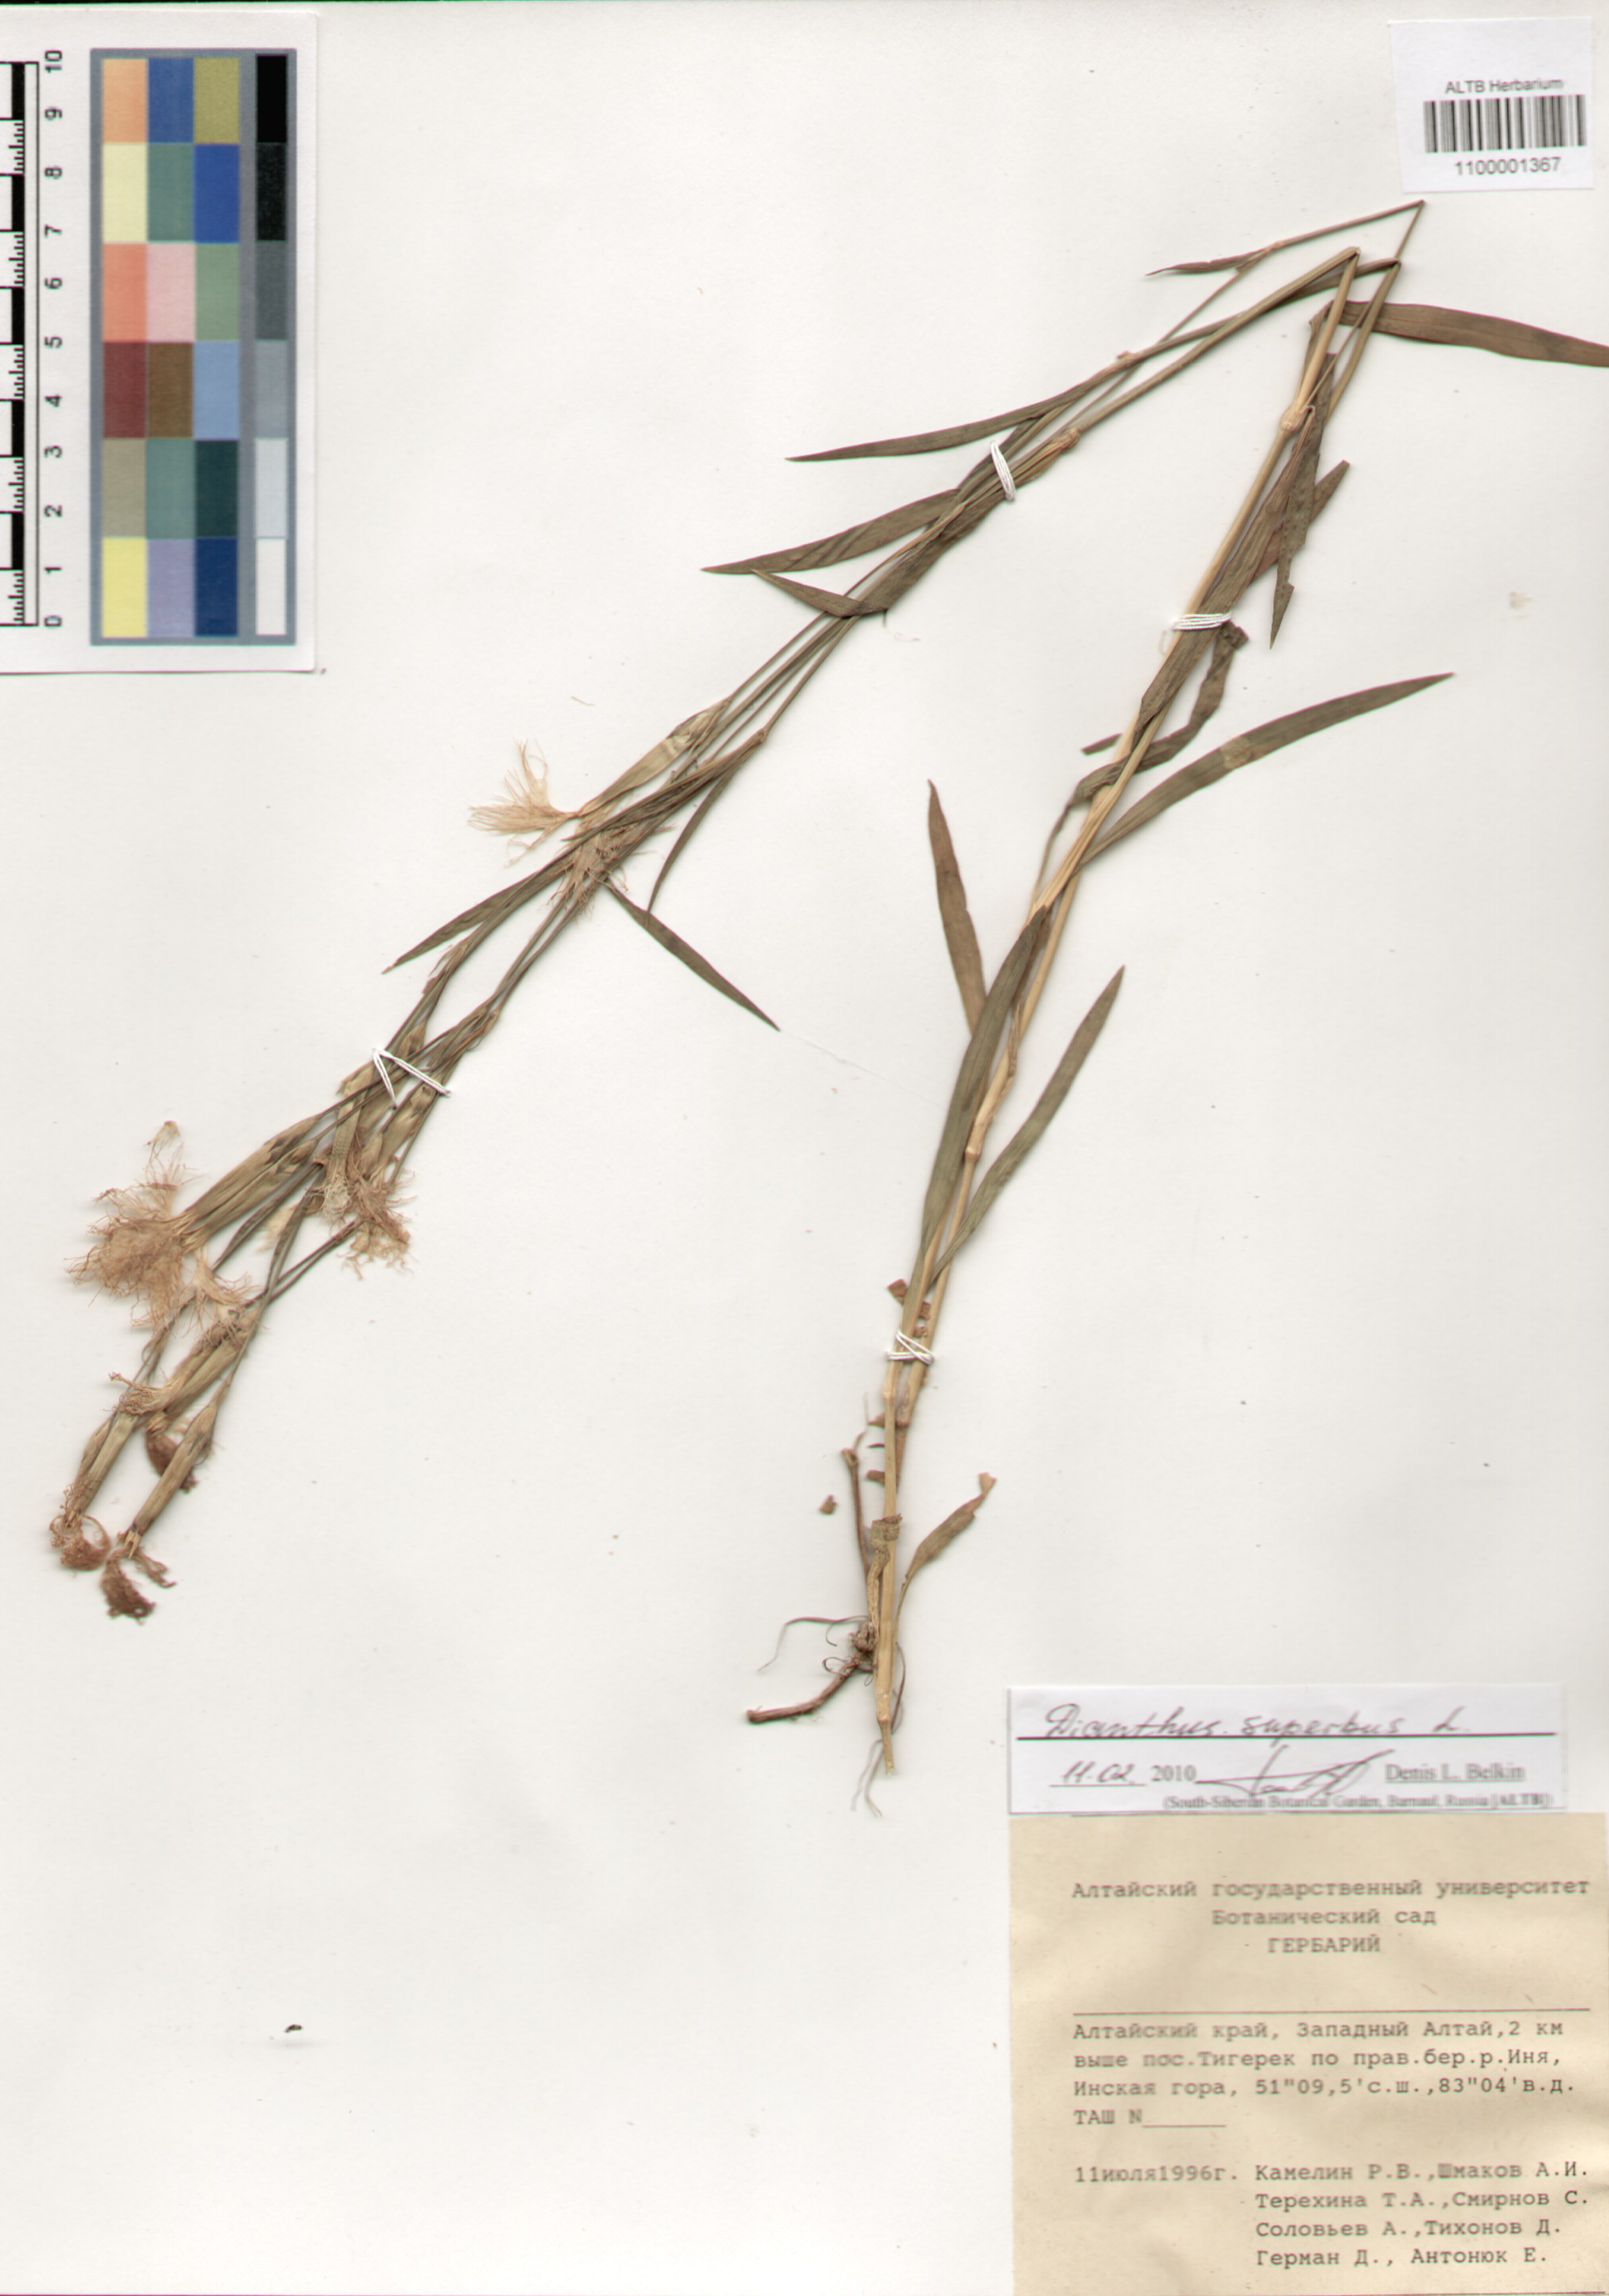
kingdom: Plantae
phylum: Tracheophyta
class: Magnoliopsida
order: Caryophyllales
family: Caryophyllaceae
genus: Dianthus
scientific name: Dianthus superbus
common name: Fringed pink
